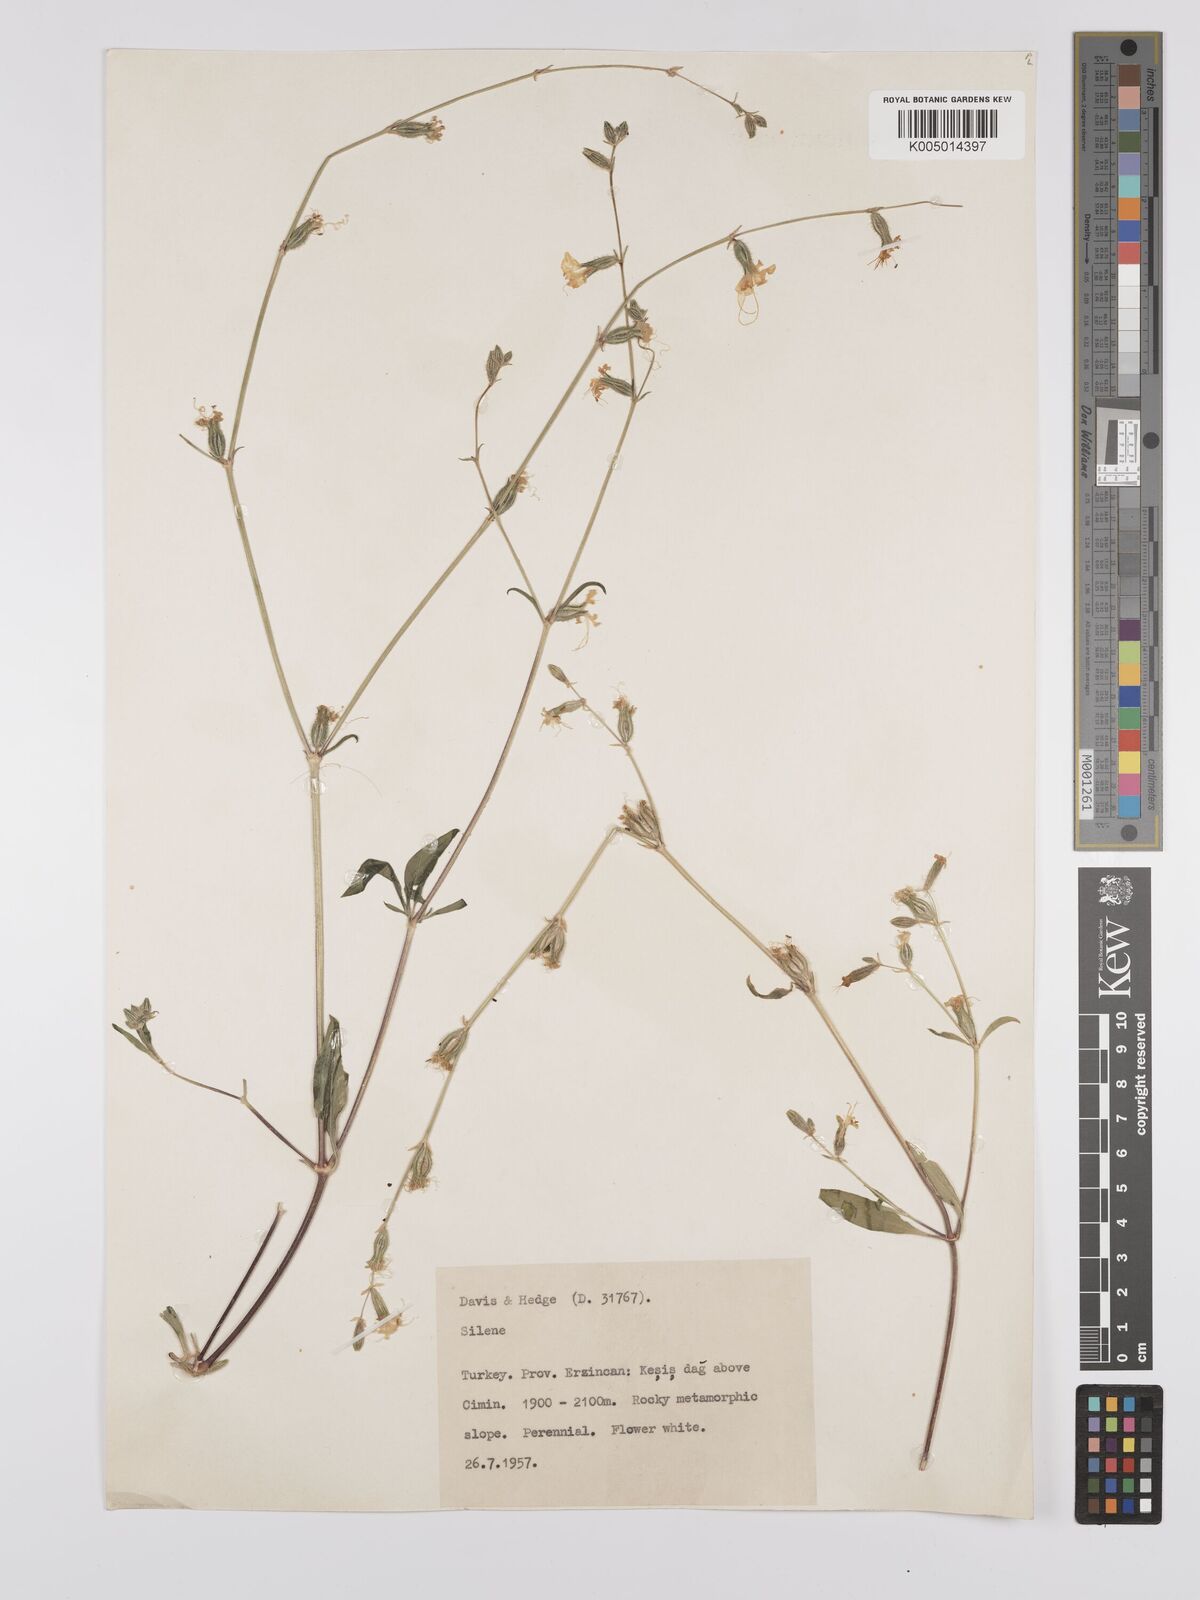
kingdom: Plantae
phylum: Tracheophyta
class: Magnoliopsida
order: Caryophyllales
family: Caryophyllaceae
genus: Silene
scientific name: Silene
